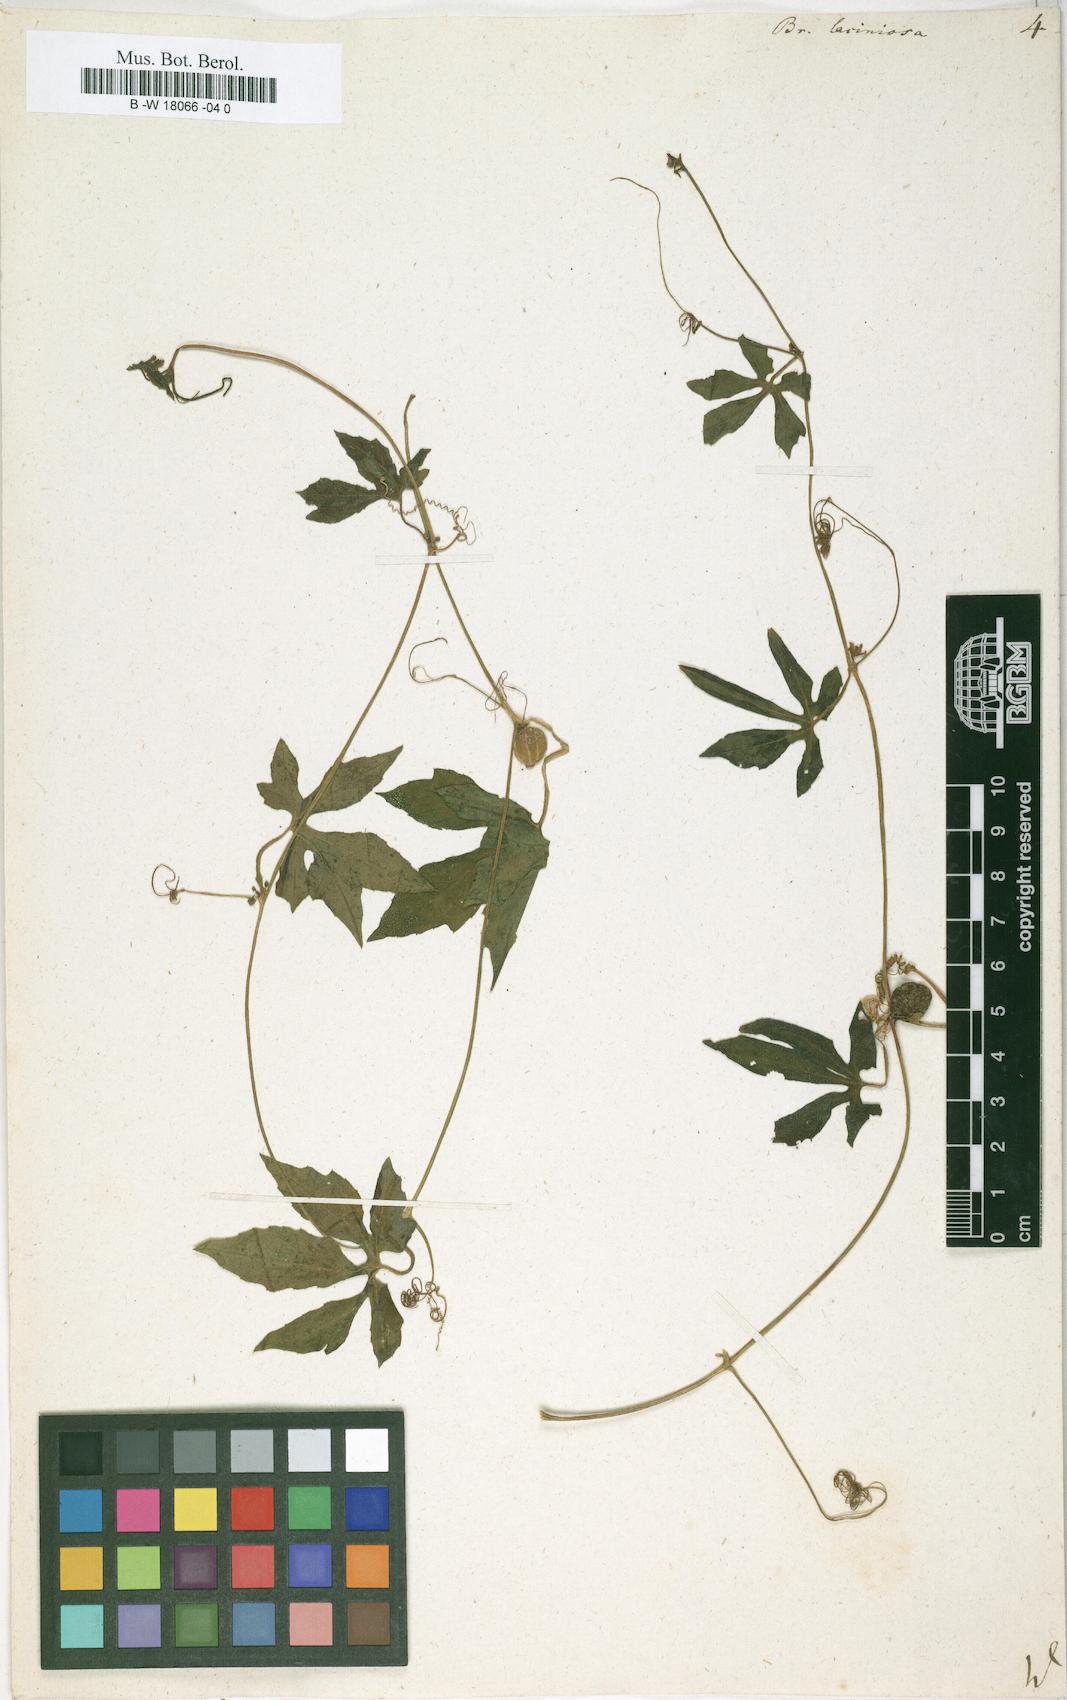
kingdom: Plantae
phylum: Tracheophyta
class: Magnoliopsida
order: Cucurbitales
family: Cucurbitaceae
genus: Diplocyclos
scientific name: Diplocyclos palmatus
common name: Striped-cucumber
